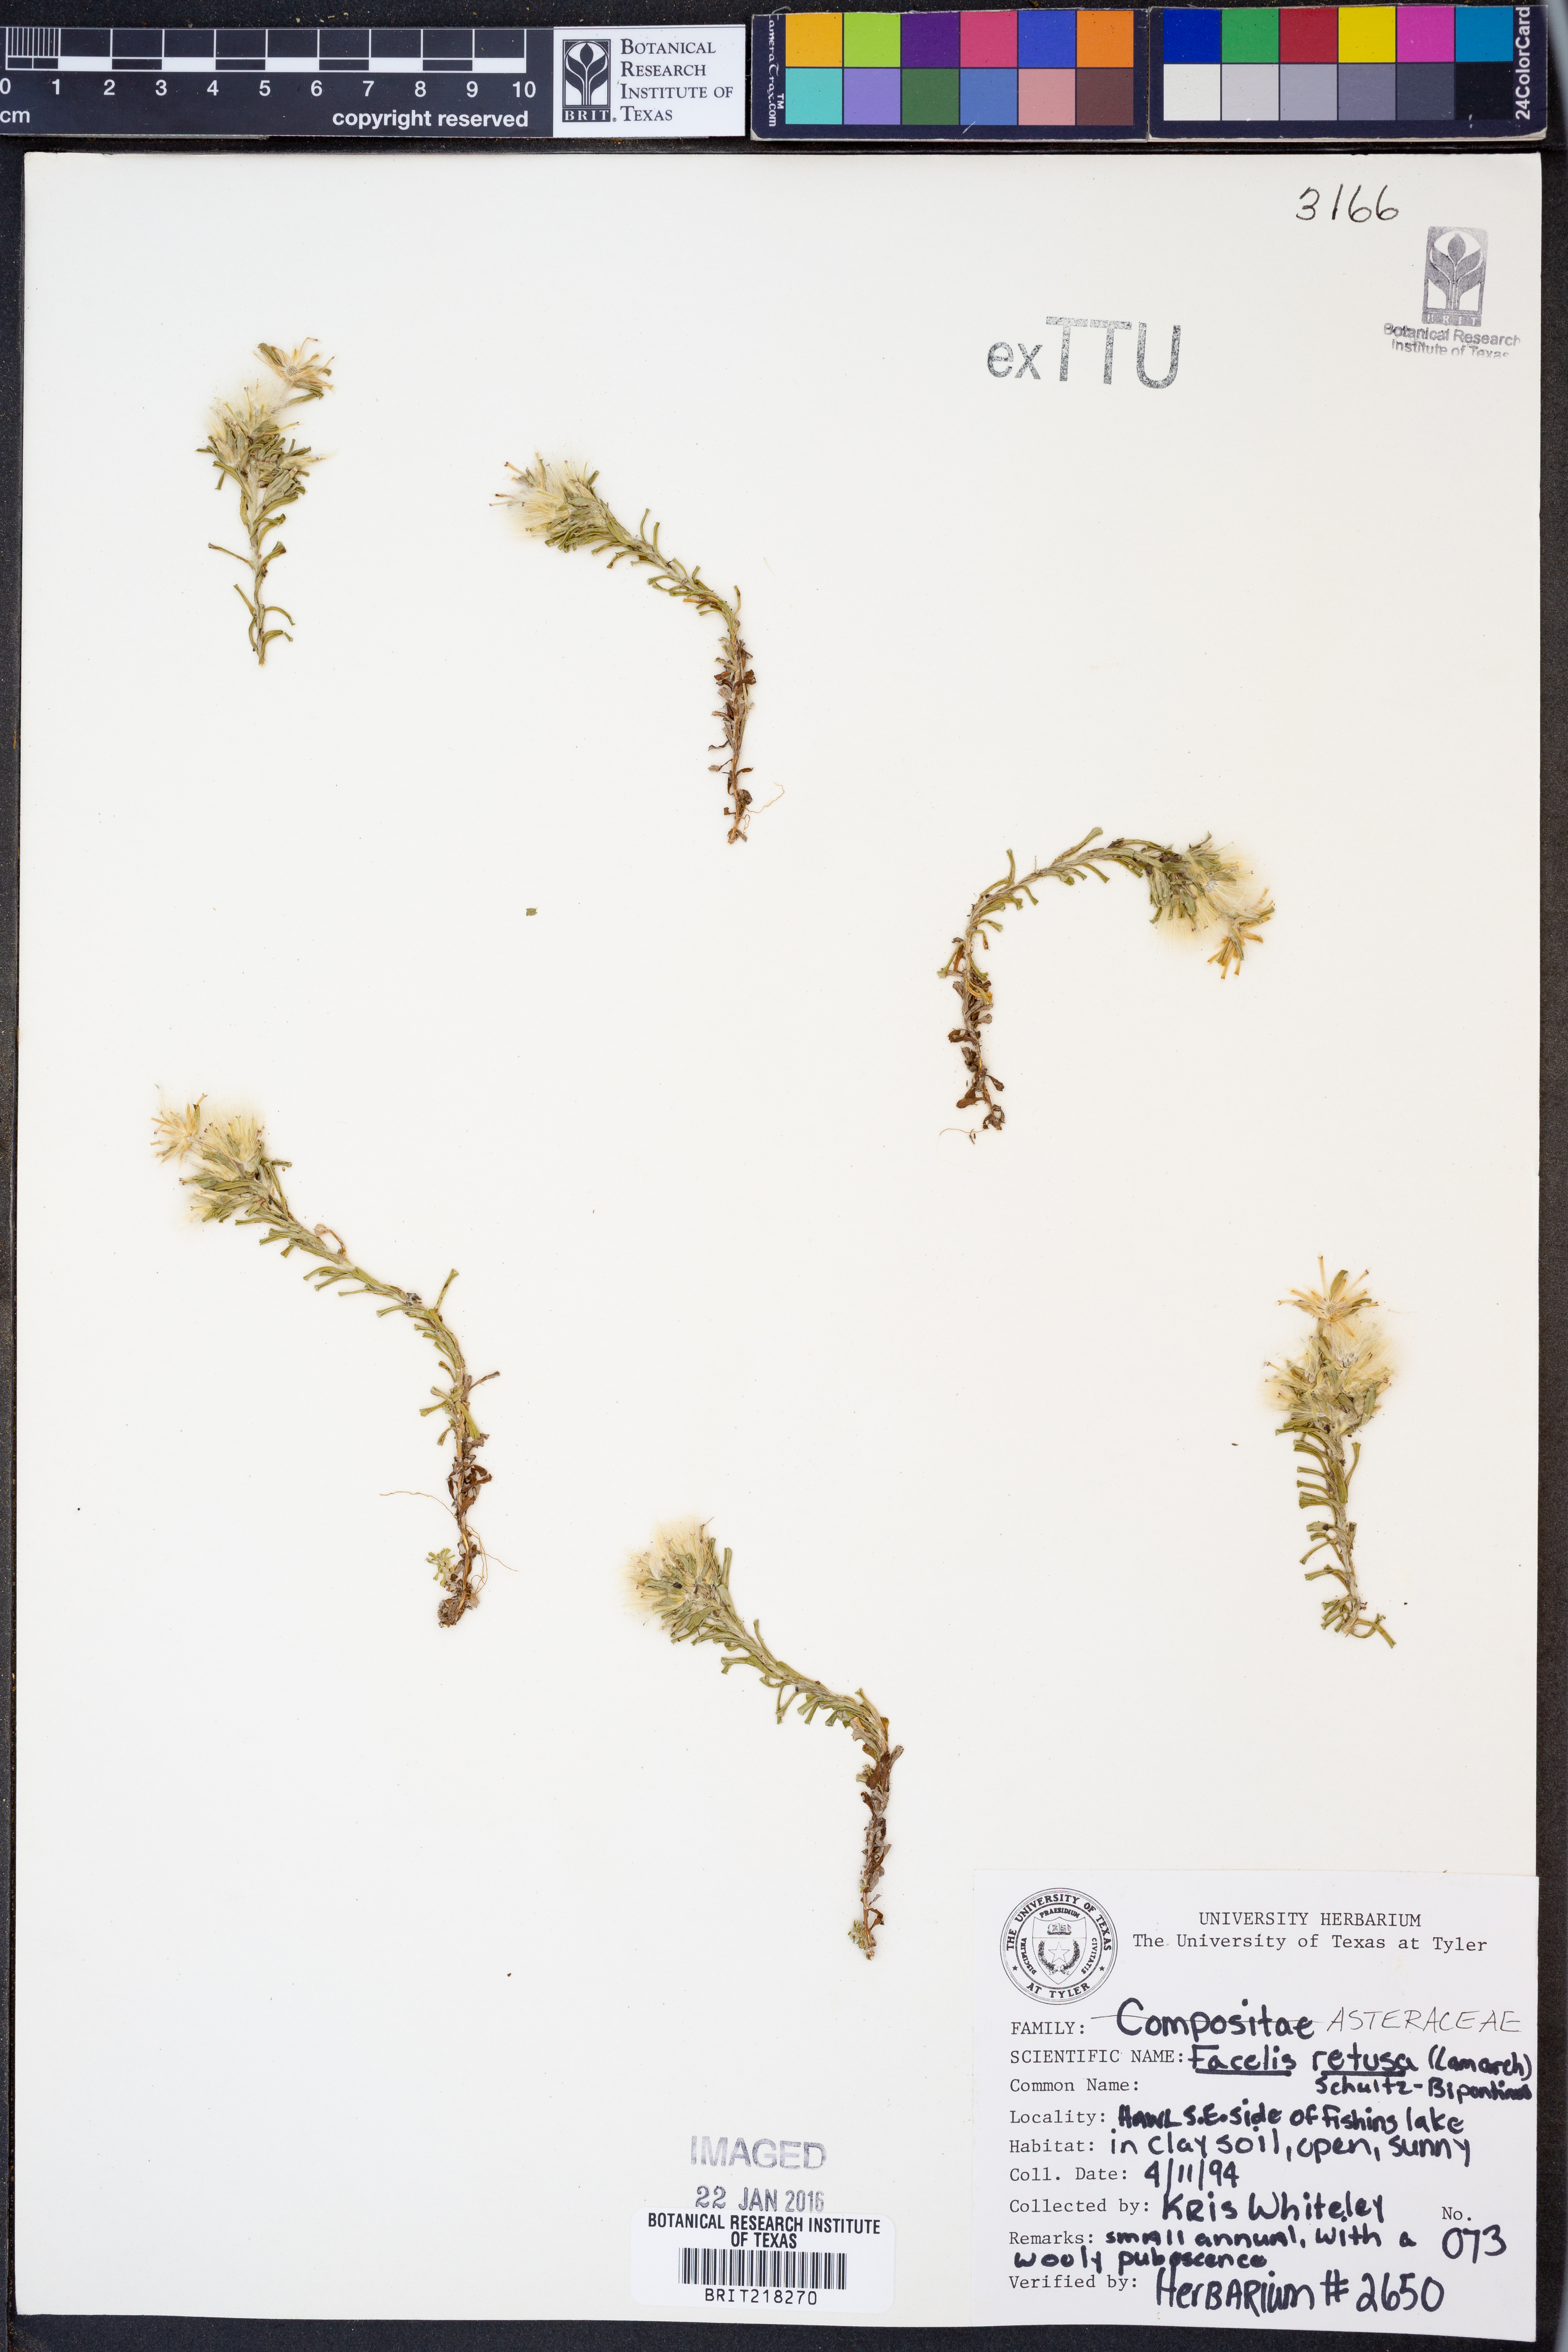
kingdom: Plantae
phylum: Tracheophyta
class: Magnoliopsida
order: Asterales
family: Asteraceae
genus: Facelis
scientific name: Facelis retusa
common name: Annual trampweed
